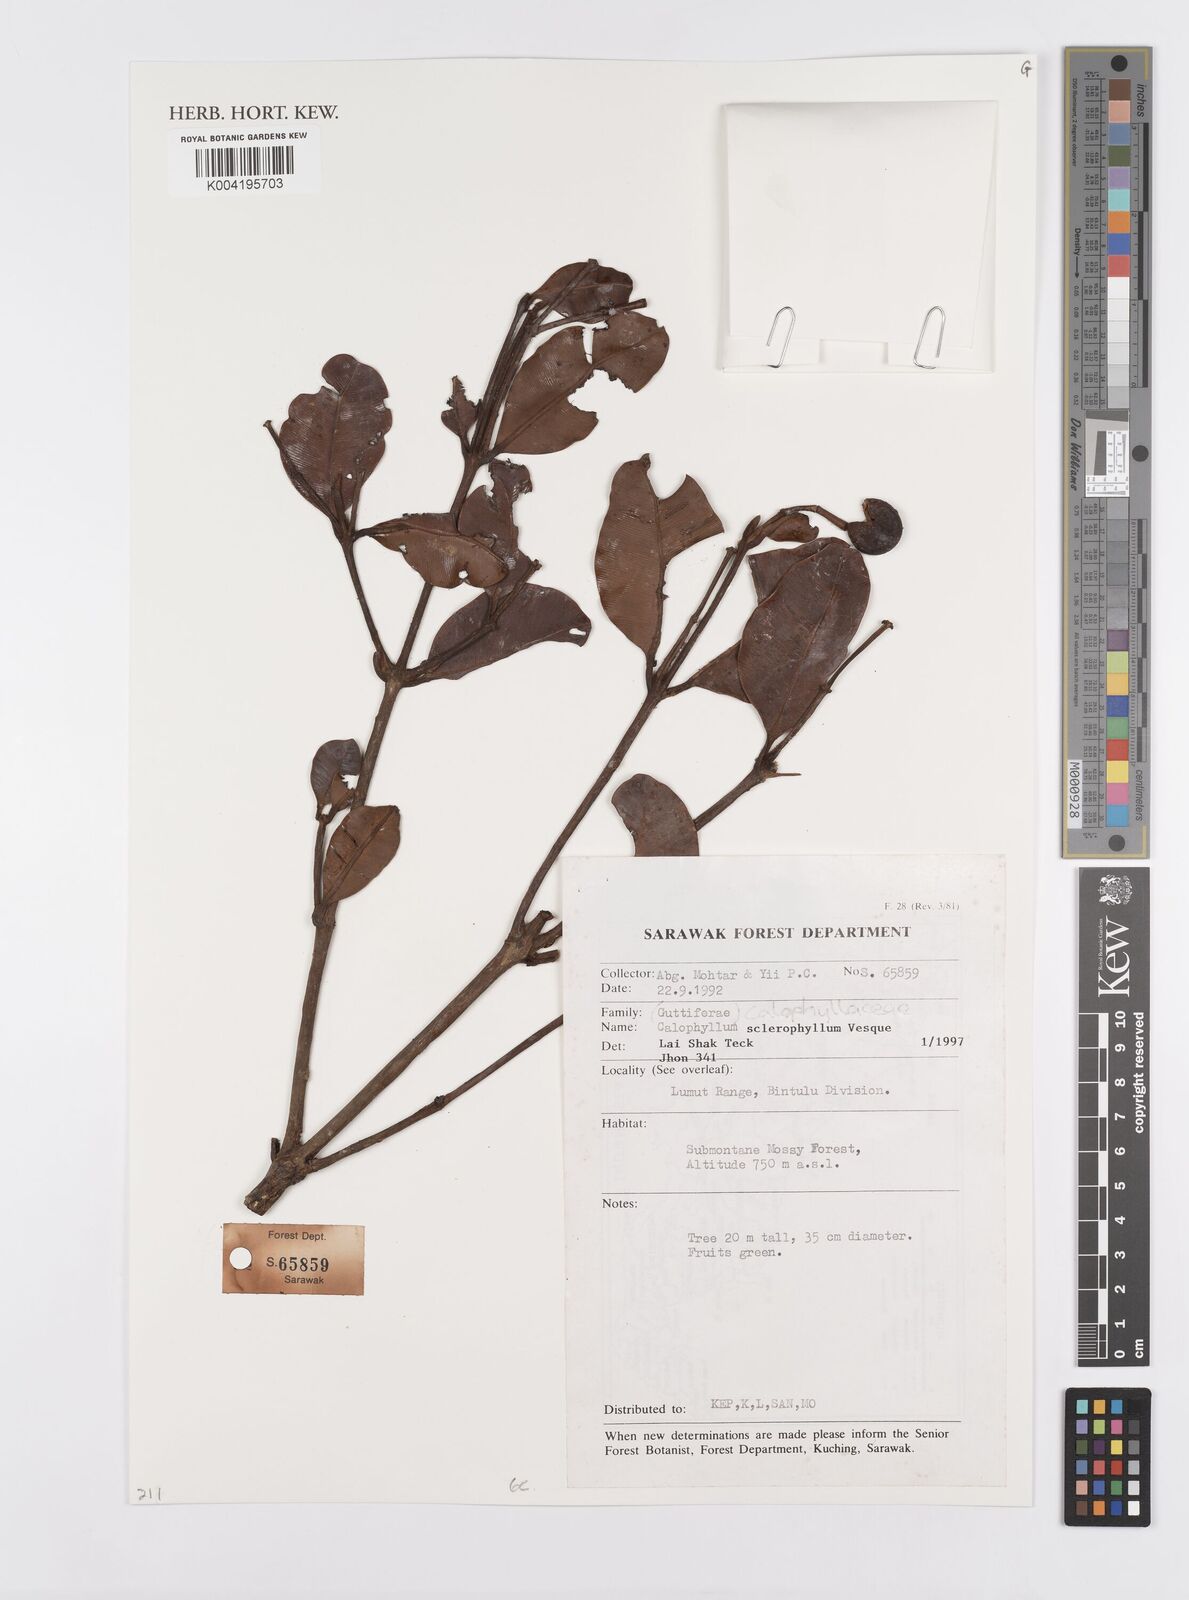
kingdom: Plantae
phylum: Tracheophyta
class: Magnoliopsida
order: Malpighiales
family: Calophyllaceae
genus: Calophyllum
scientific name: Calophyllum sclerophyllum
